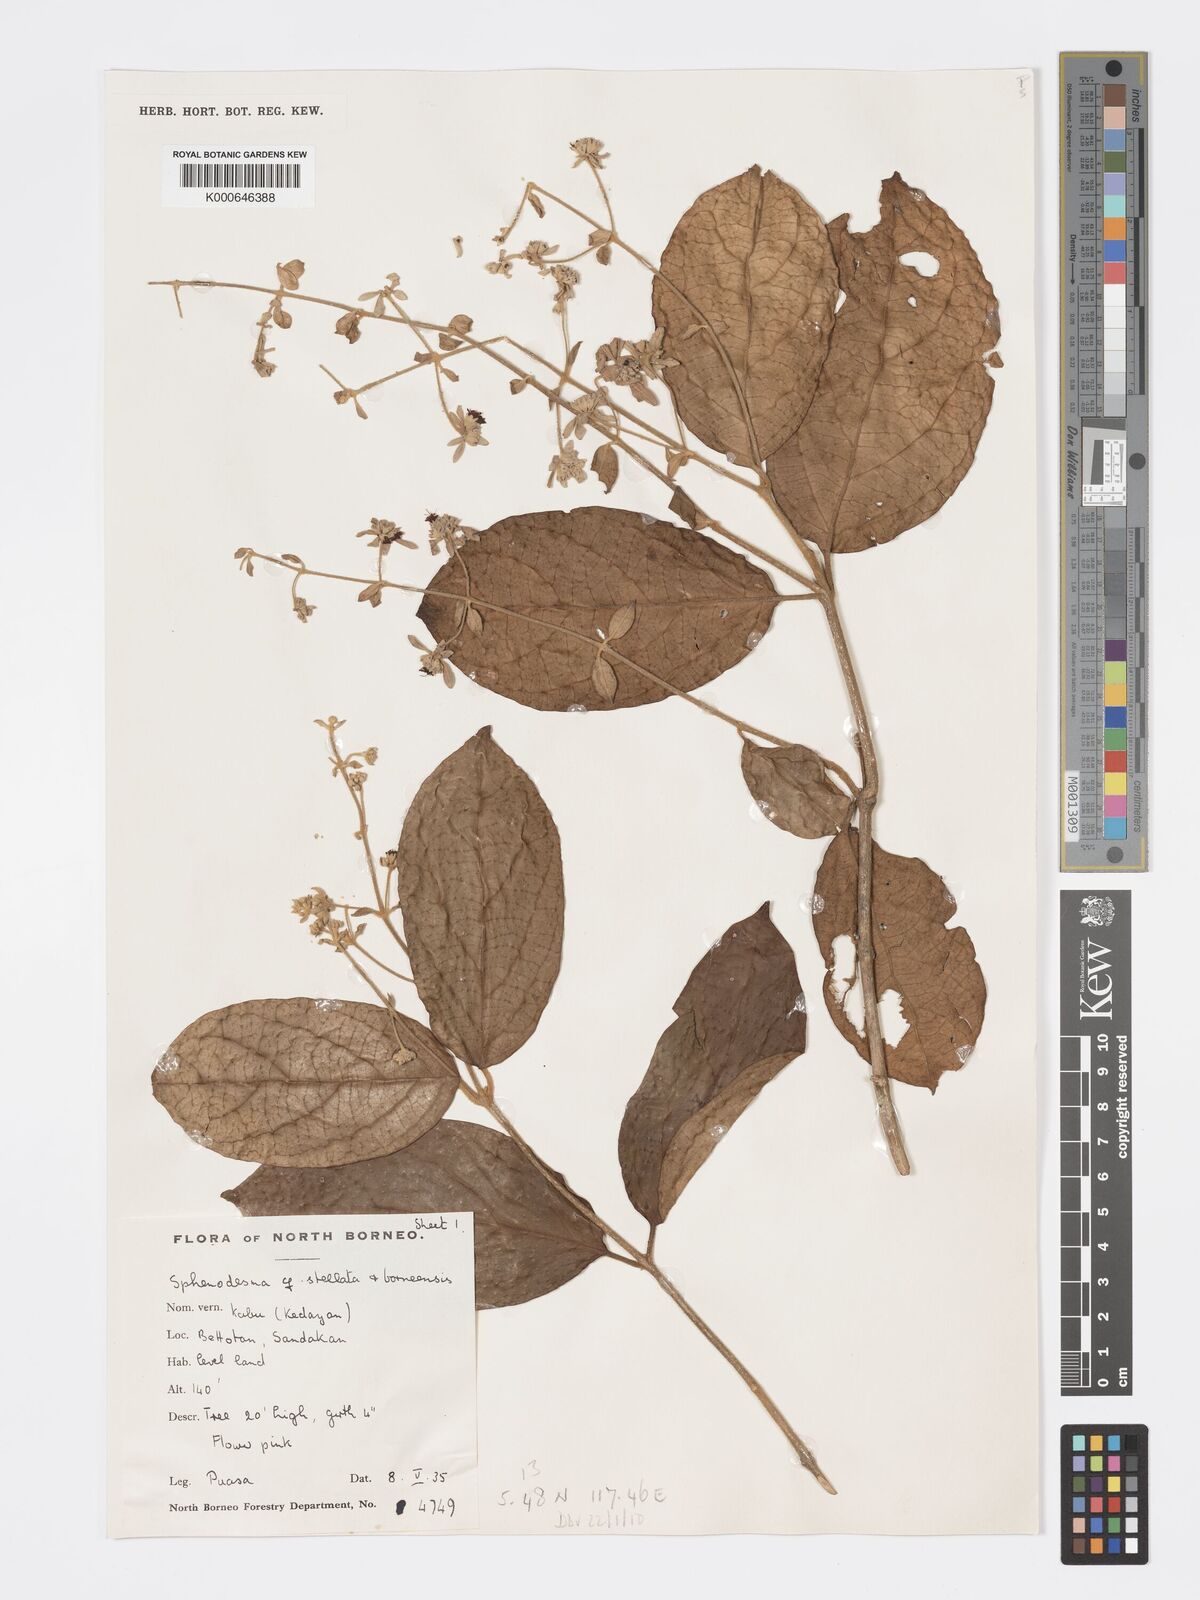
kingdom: Plantae
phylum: Tracheophyta
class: Magnoliopsida
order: Lamiales
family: Lamiaceae
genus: Sphenodesme
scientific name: Sphenodesme stellata
